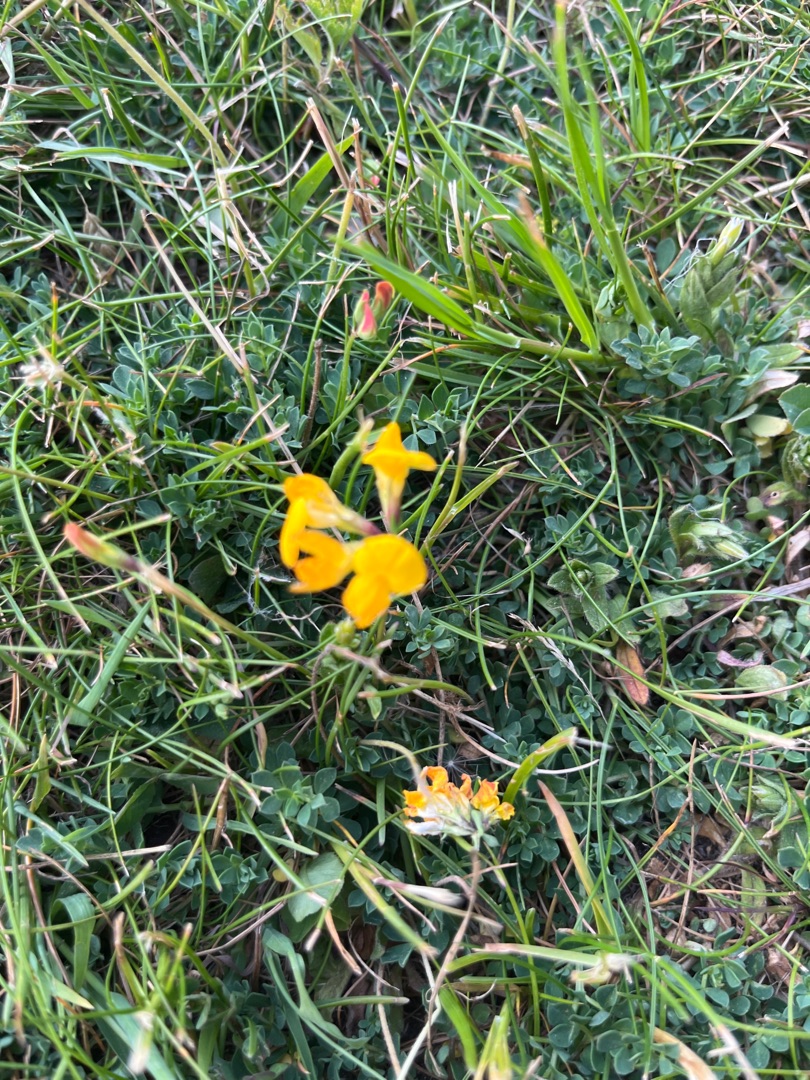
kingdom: Plantae
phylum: Tracheophyta
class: Magnoliopsida
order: Fabales
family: Fabaceae
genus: Lotus
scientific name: Lotus corniculatus
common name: Almindelig kællingetand
